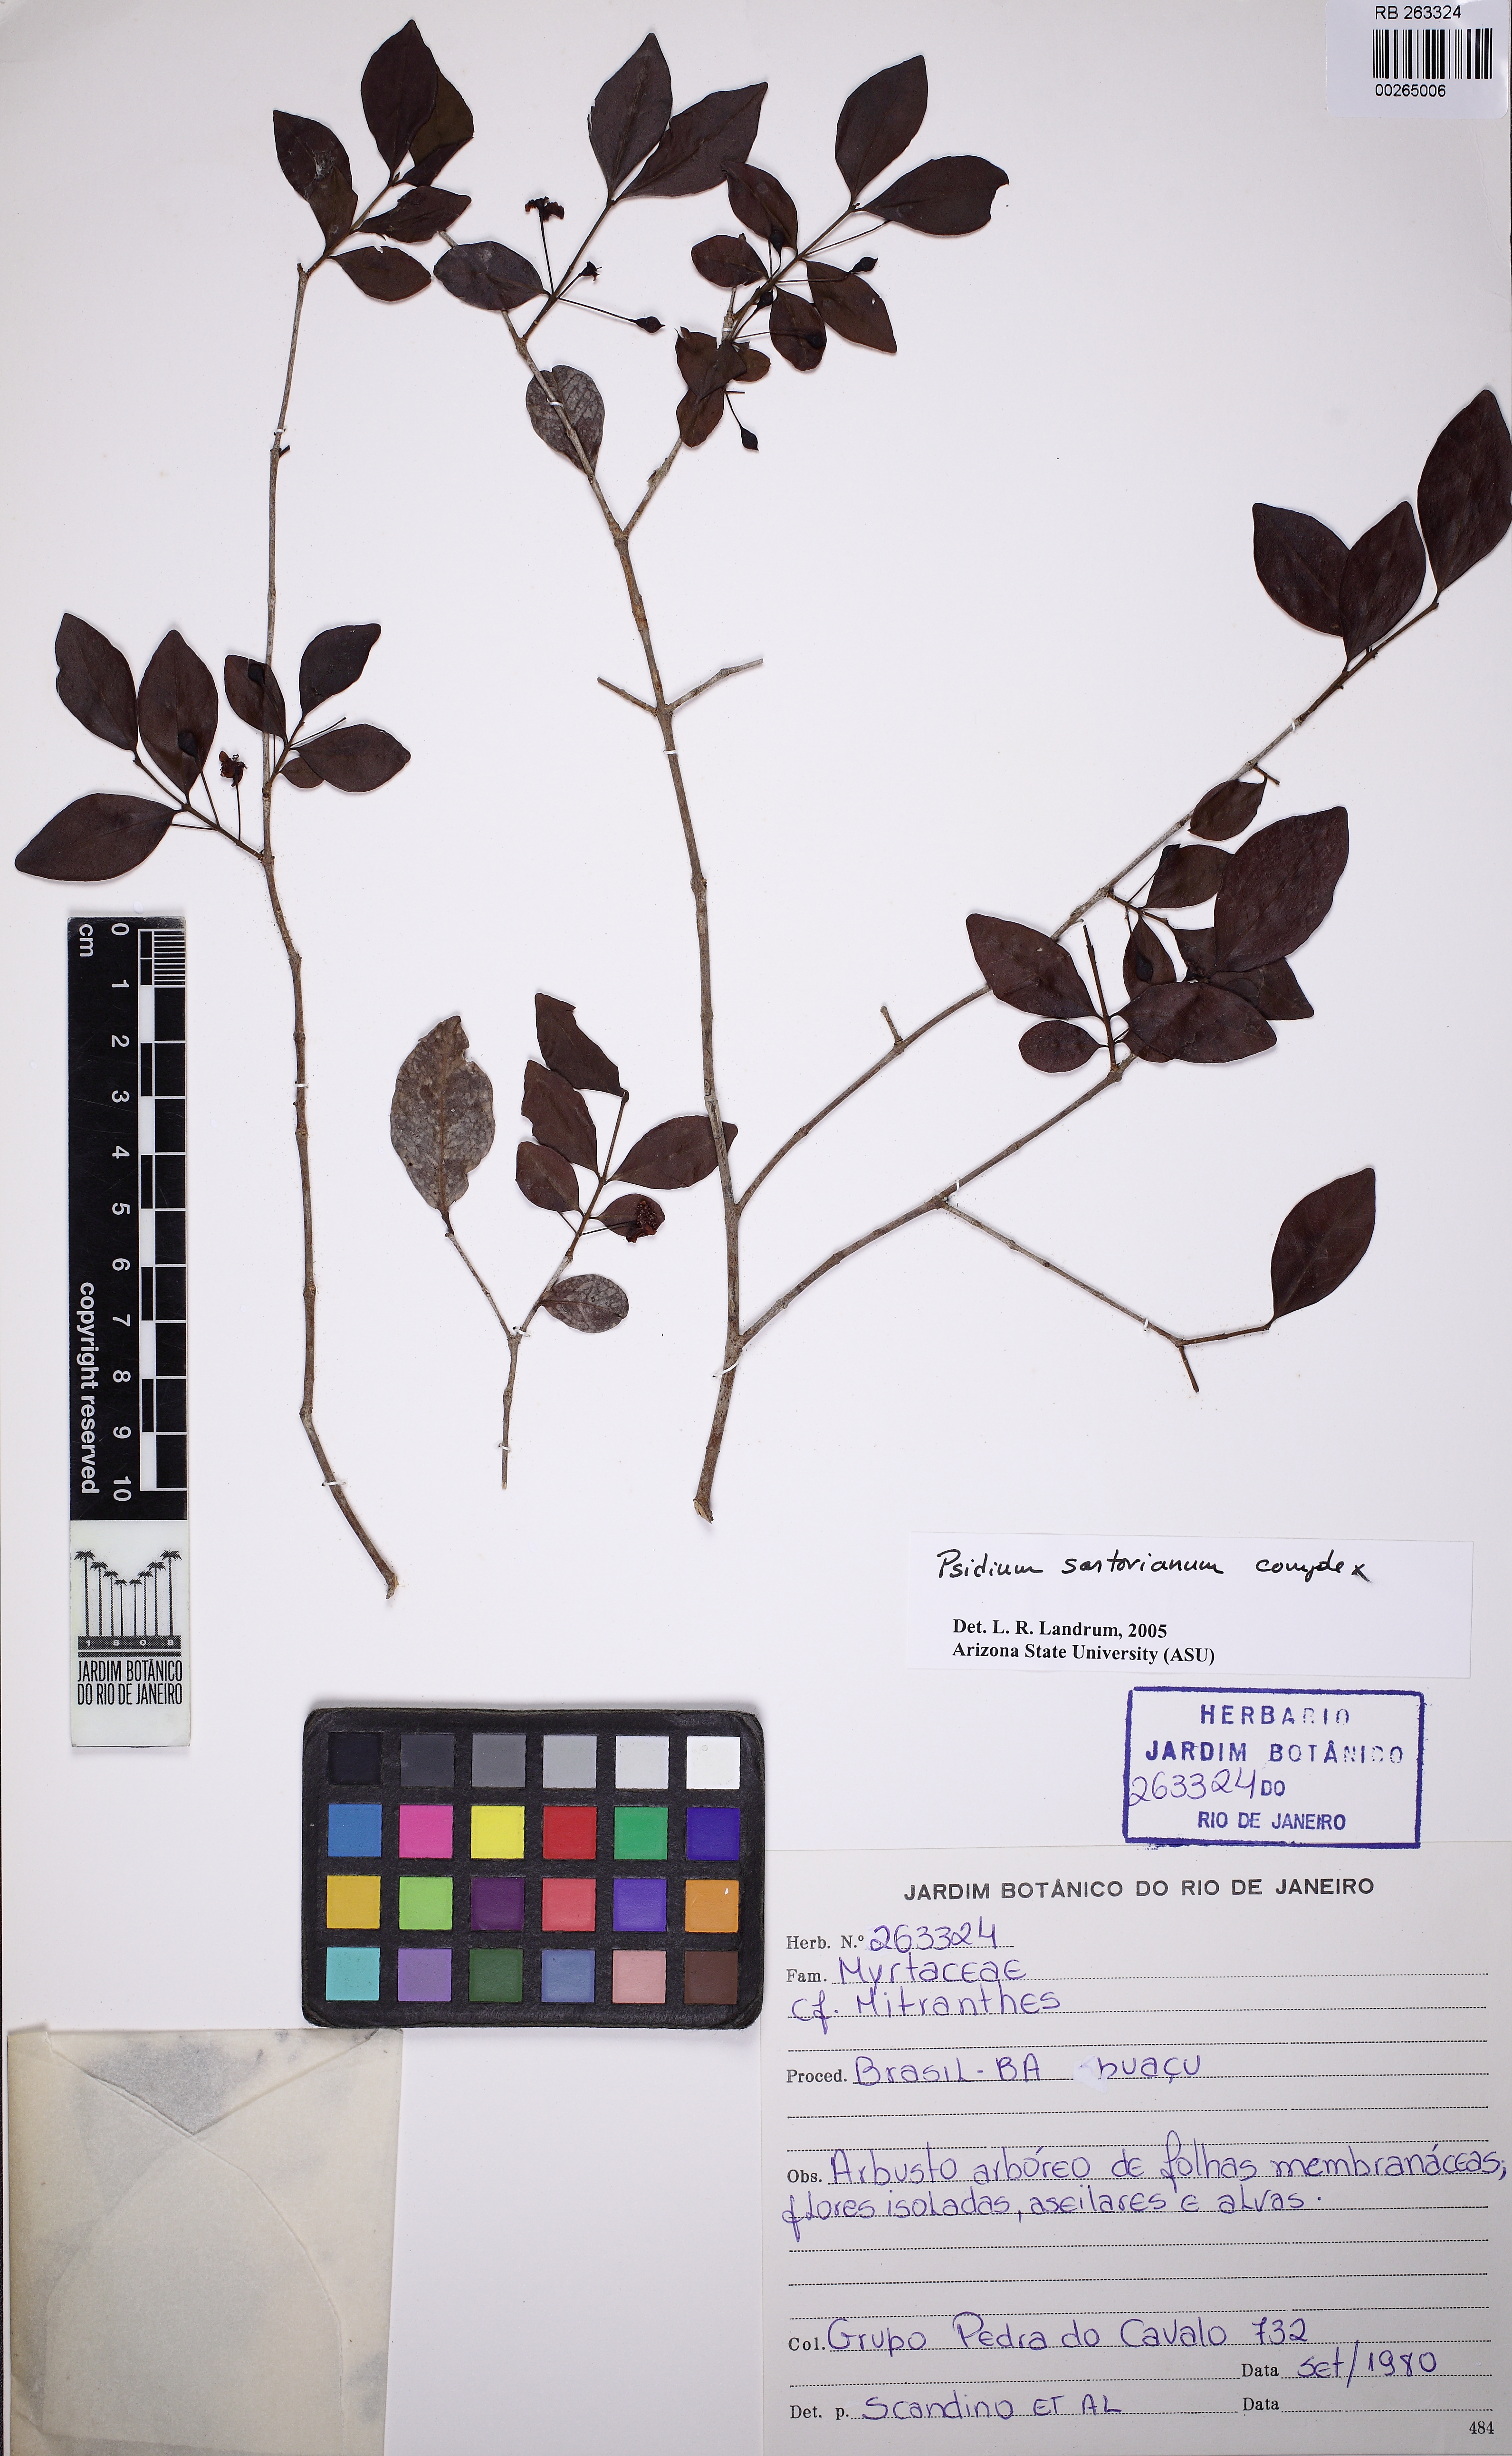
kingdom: Plantae
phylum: Tracheophyta
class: Magnoliopsida
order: Myrtales
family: Myrtaceae
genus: Psidium
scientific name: Psidium sartorianum
